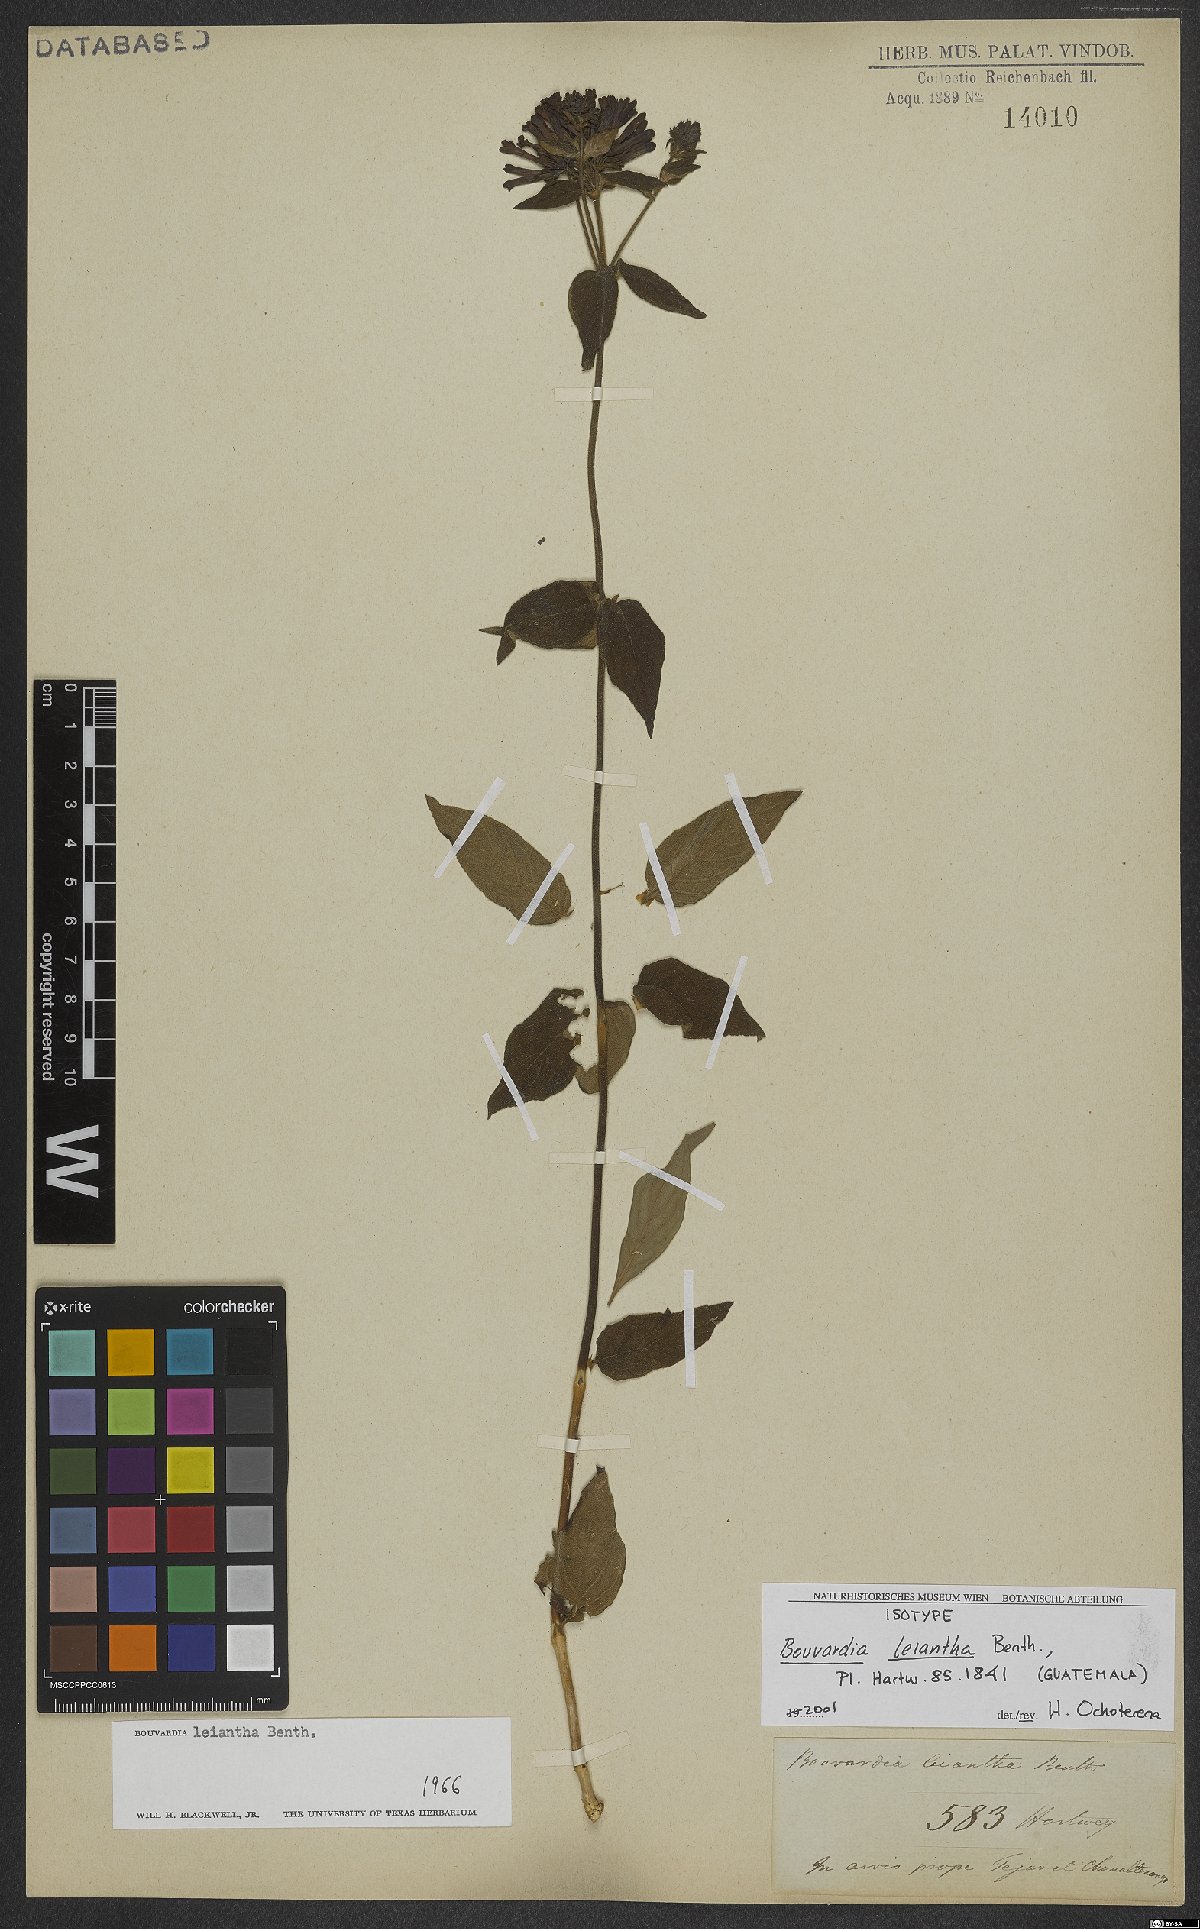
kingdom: Plantae
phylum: Tracheophyta
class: Magnoliopsida
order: Gentianales
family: Rubiaceae
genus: Bouvardia
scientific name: Bouvardia leiantha
